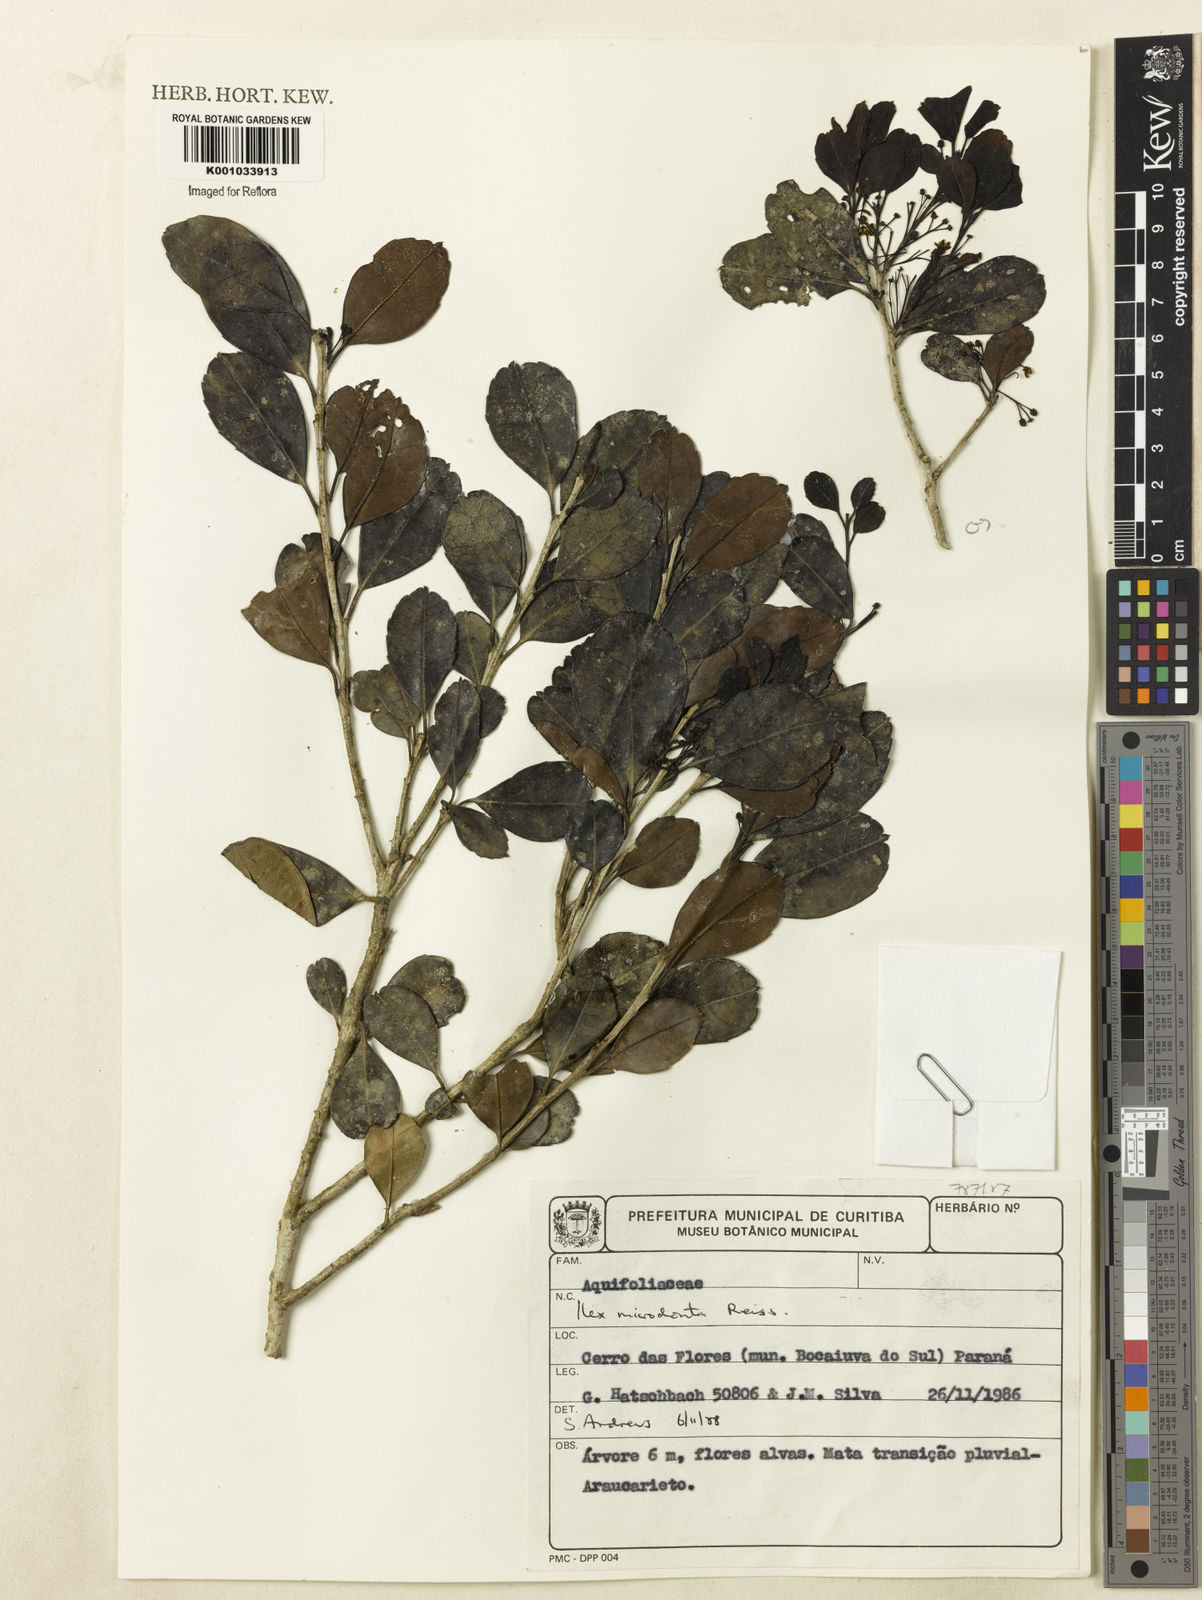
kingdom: Plantae
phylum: Tracheophyta
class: Magnoliopsida
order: Aquifoliales
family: Aquifoliaceae
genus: Ilex
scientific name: Ilex microdonta
